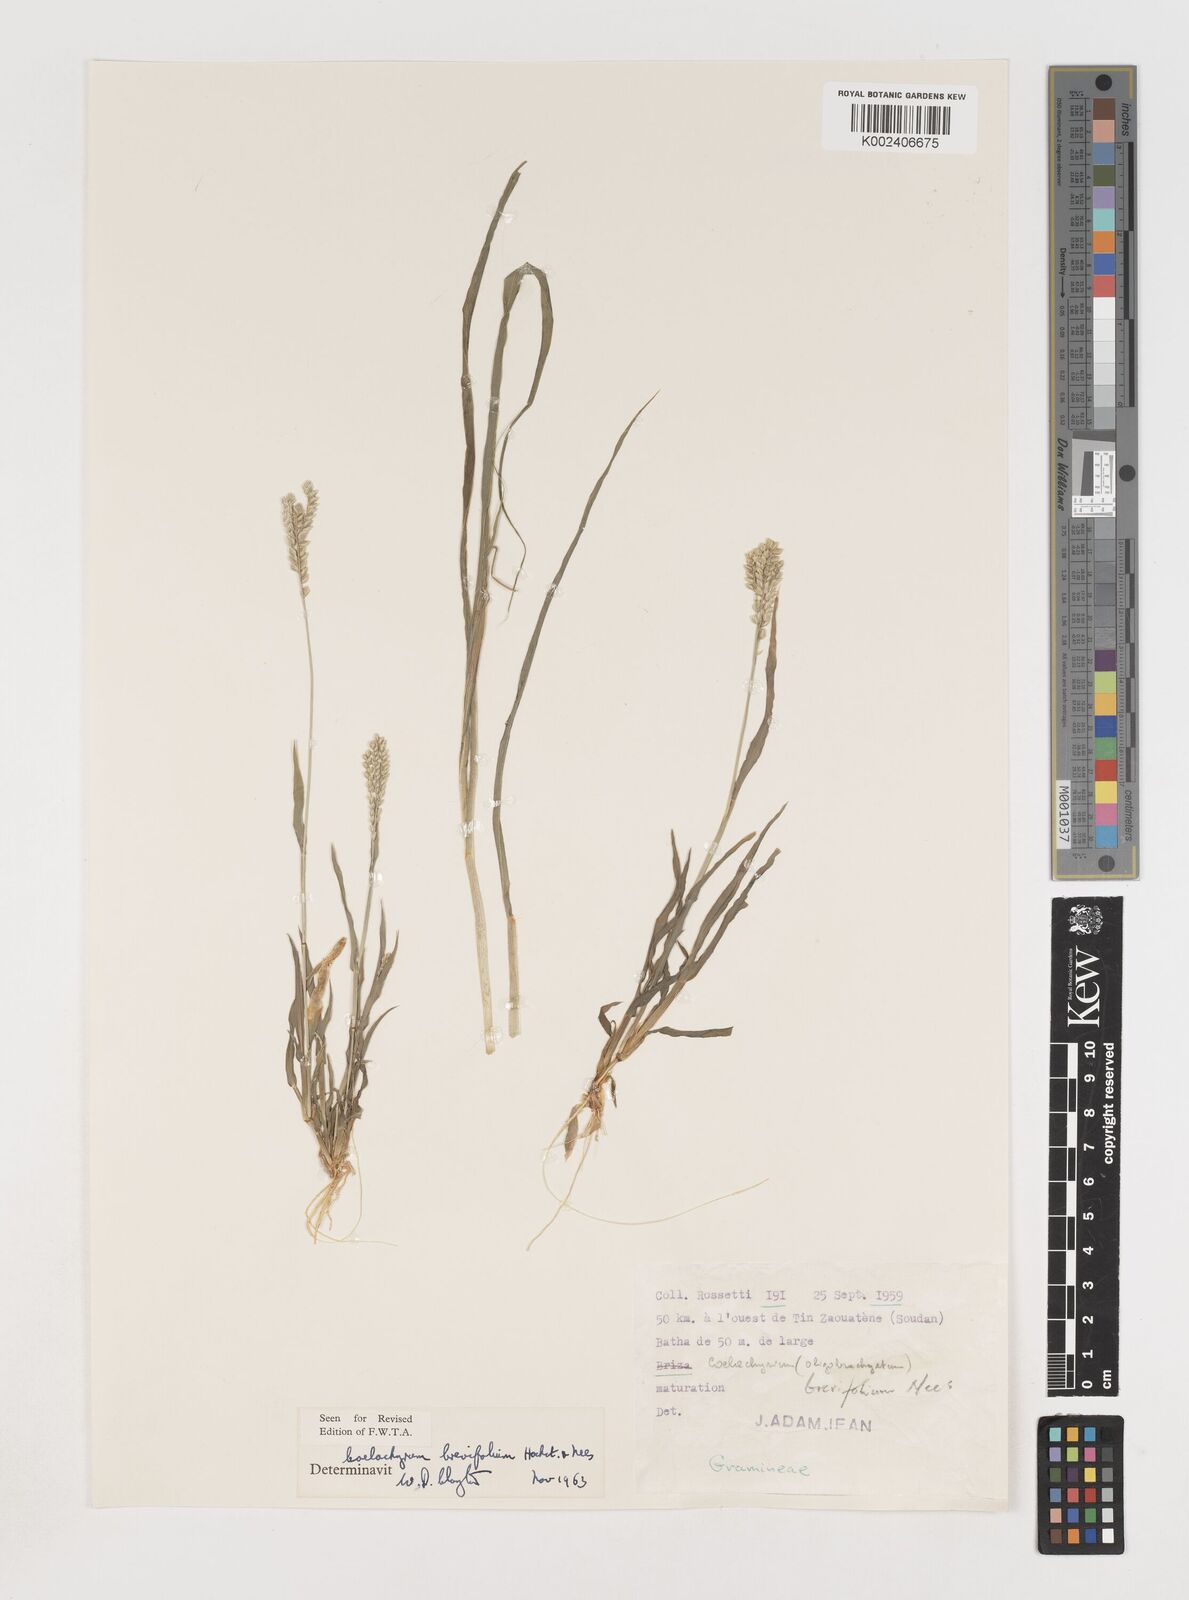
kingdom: Plantae
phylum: Tracheophyta
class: Liliopsida
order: Poales
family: Poaceae
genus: Coelachyrum
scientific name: Coelachyrum brevifolium
